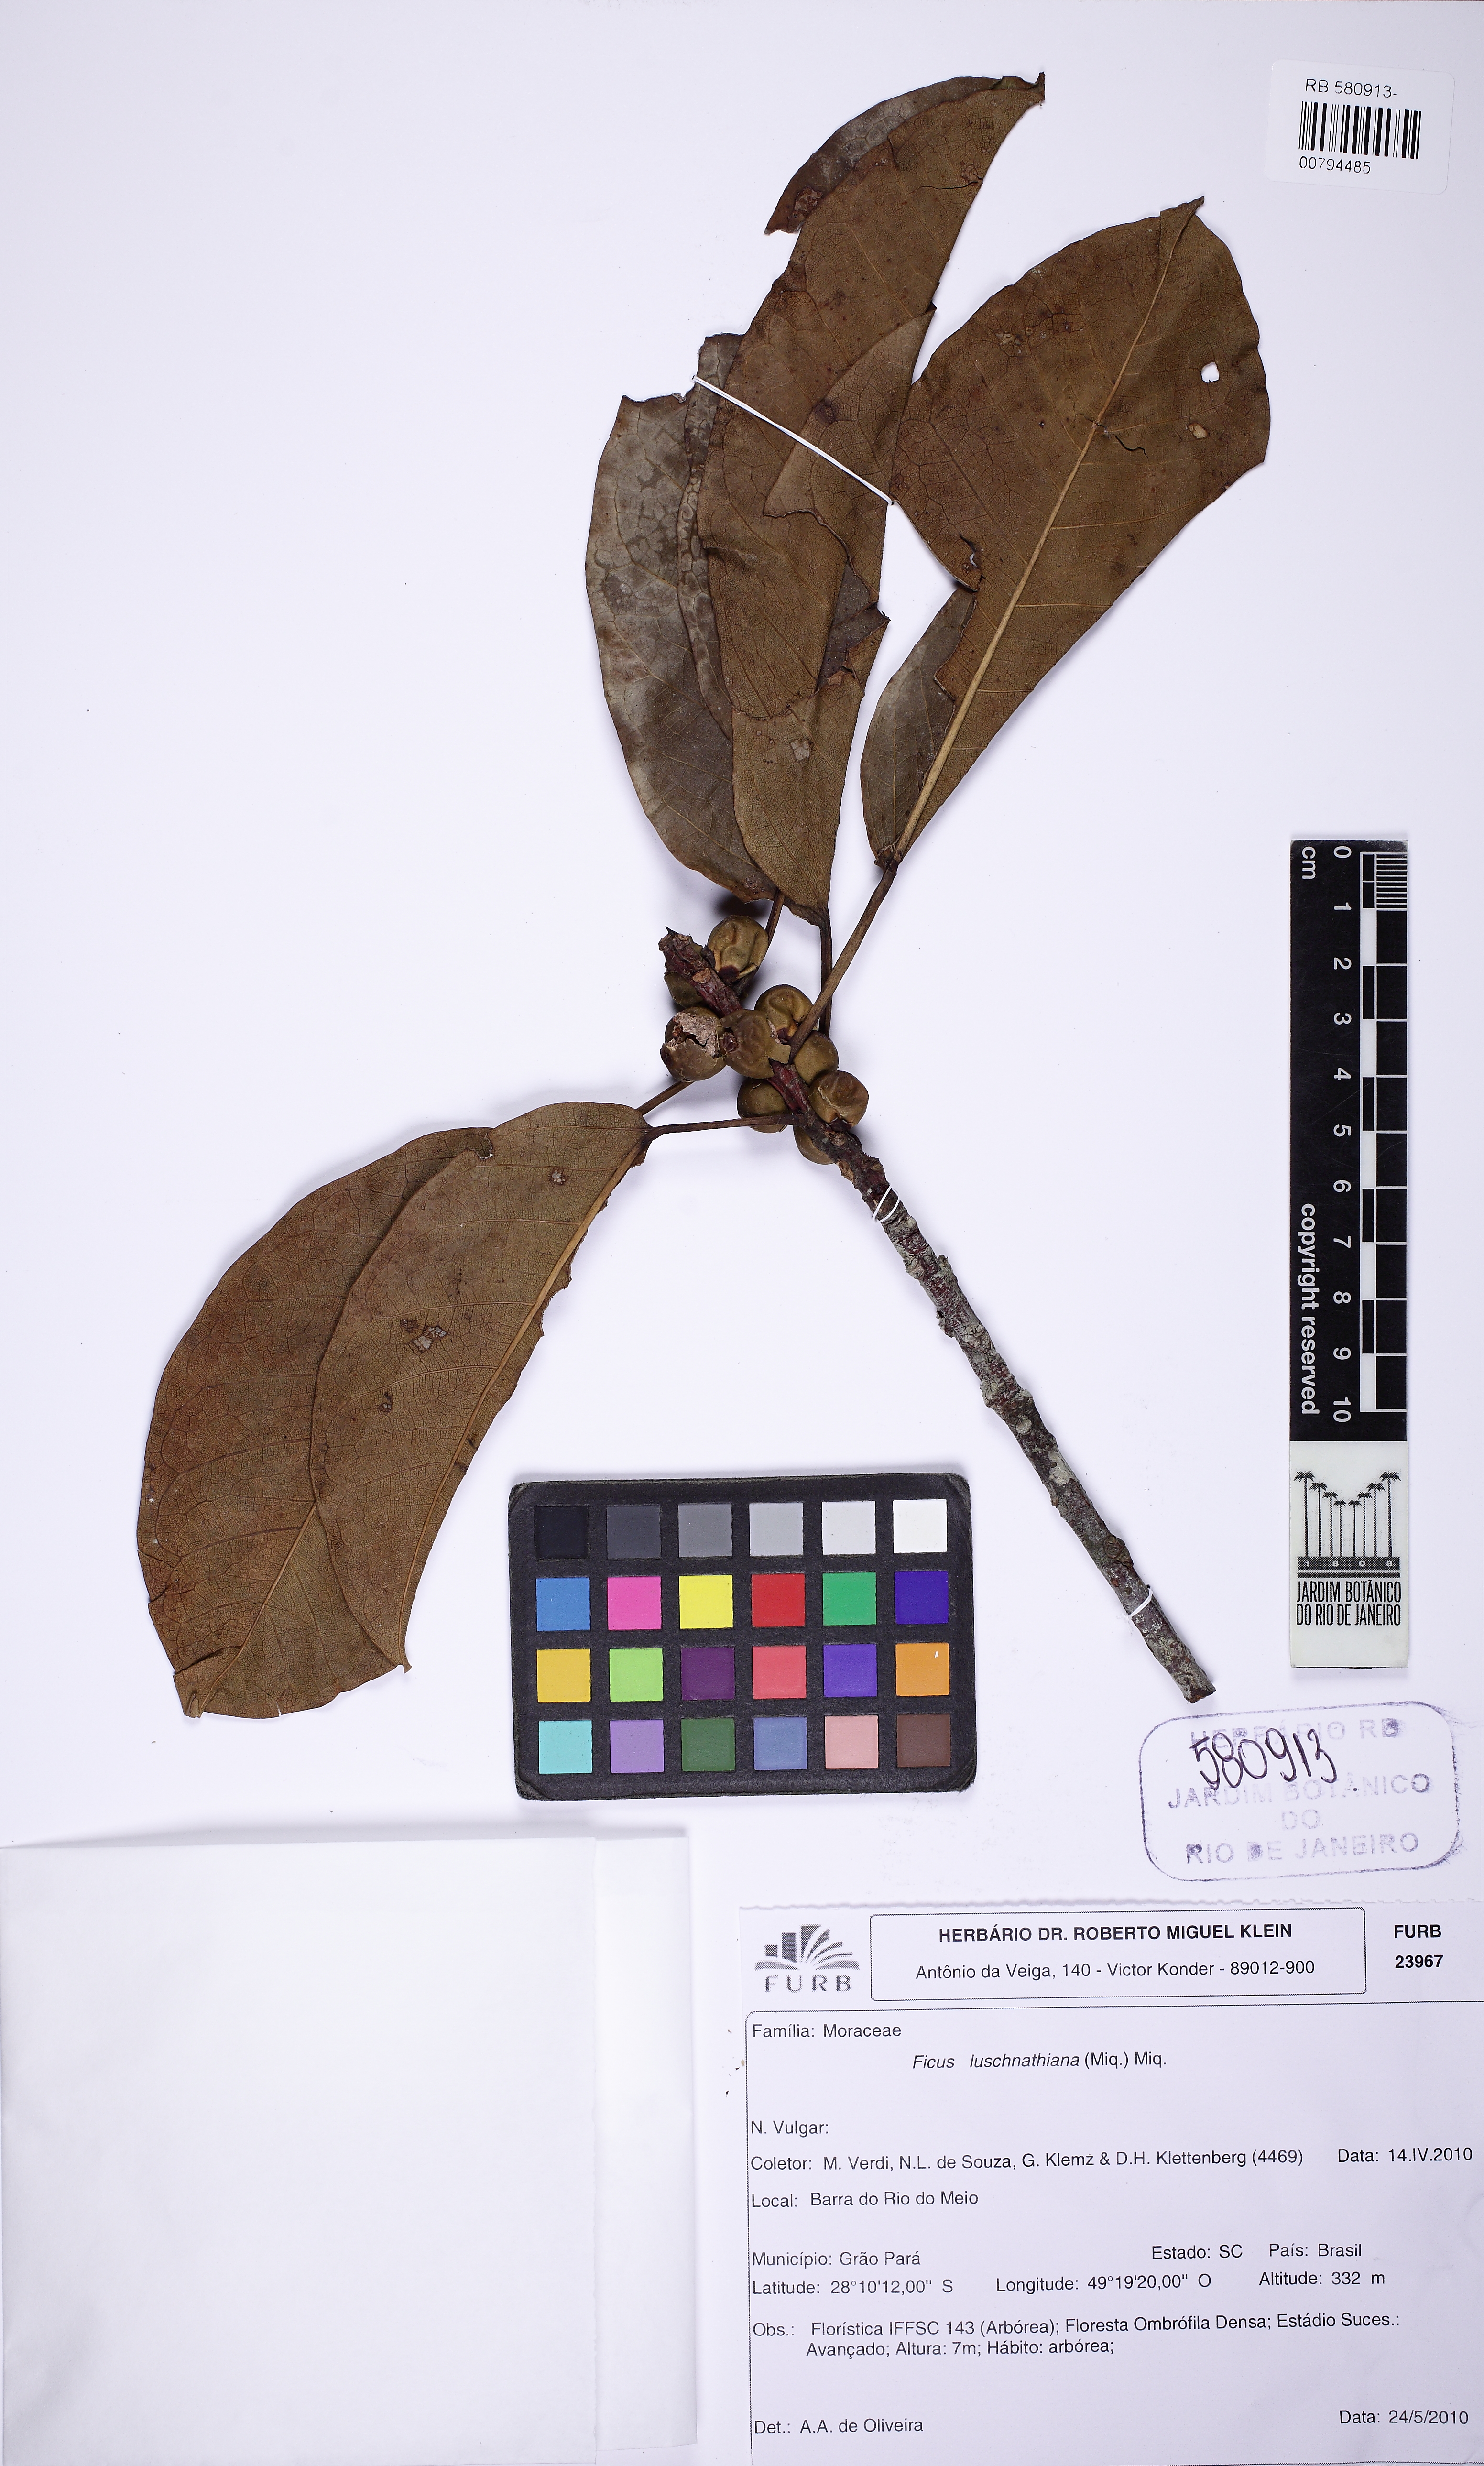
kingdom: Plantae
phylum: Tracheophyta
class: Magnoliopsida
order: Rosales
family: Moraceae
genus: Ficus
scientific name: Ficus luschnathiana
